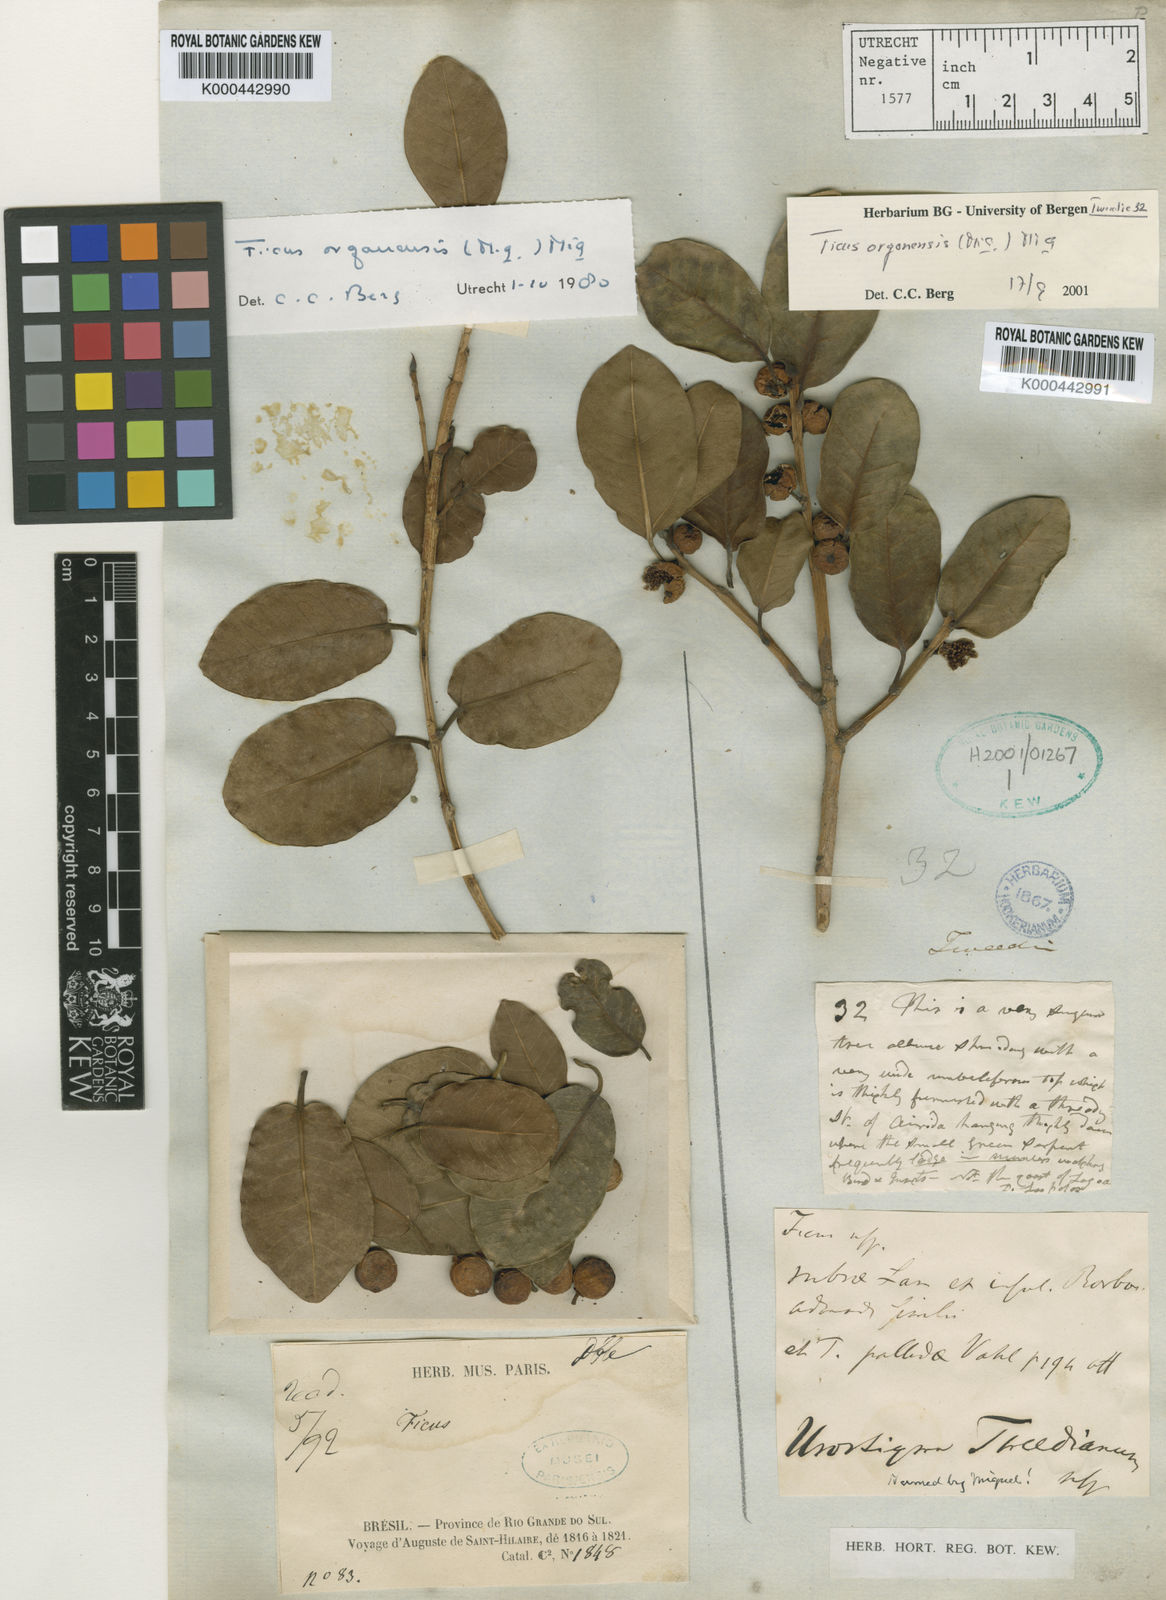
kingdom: Plantae
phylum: Tracheophyta
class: Magnoliopsida
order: Rosales
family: Moraceae
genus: Ficus
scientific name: Ficus organensis
